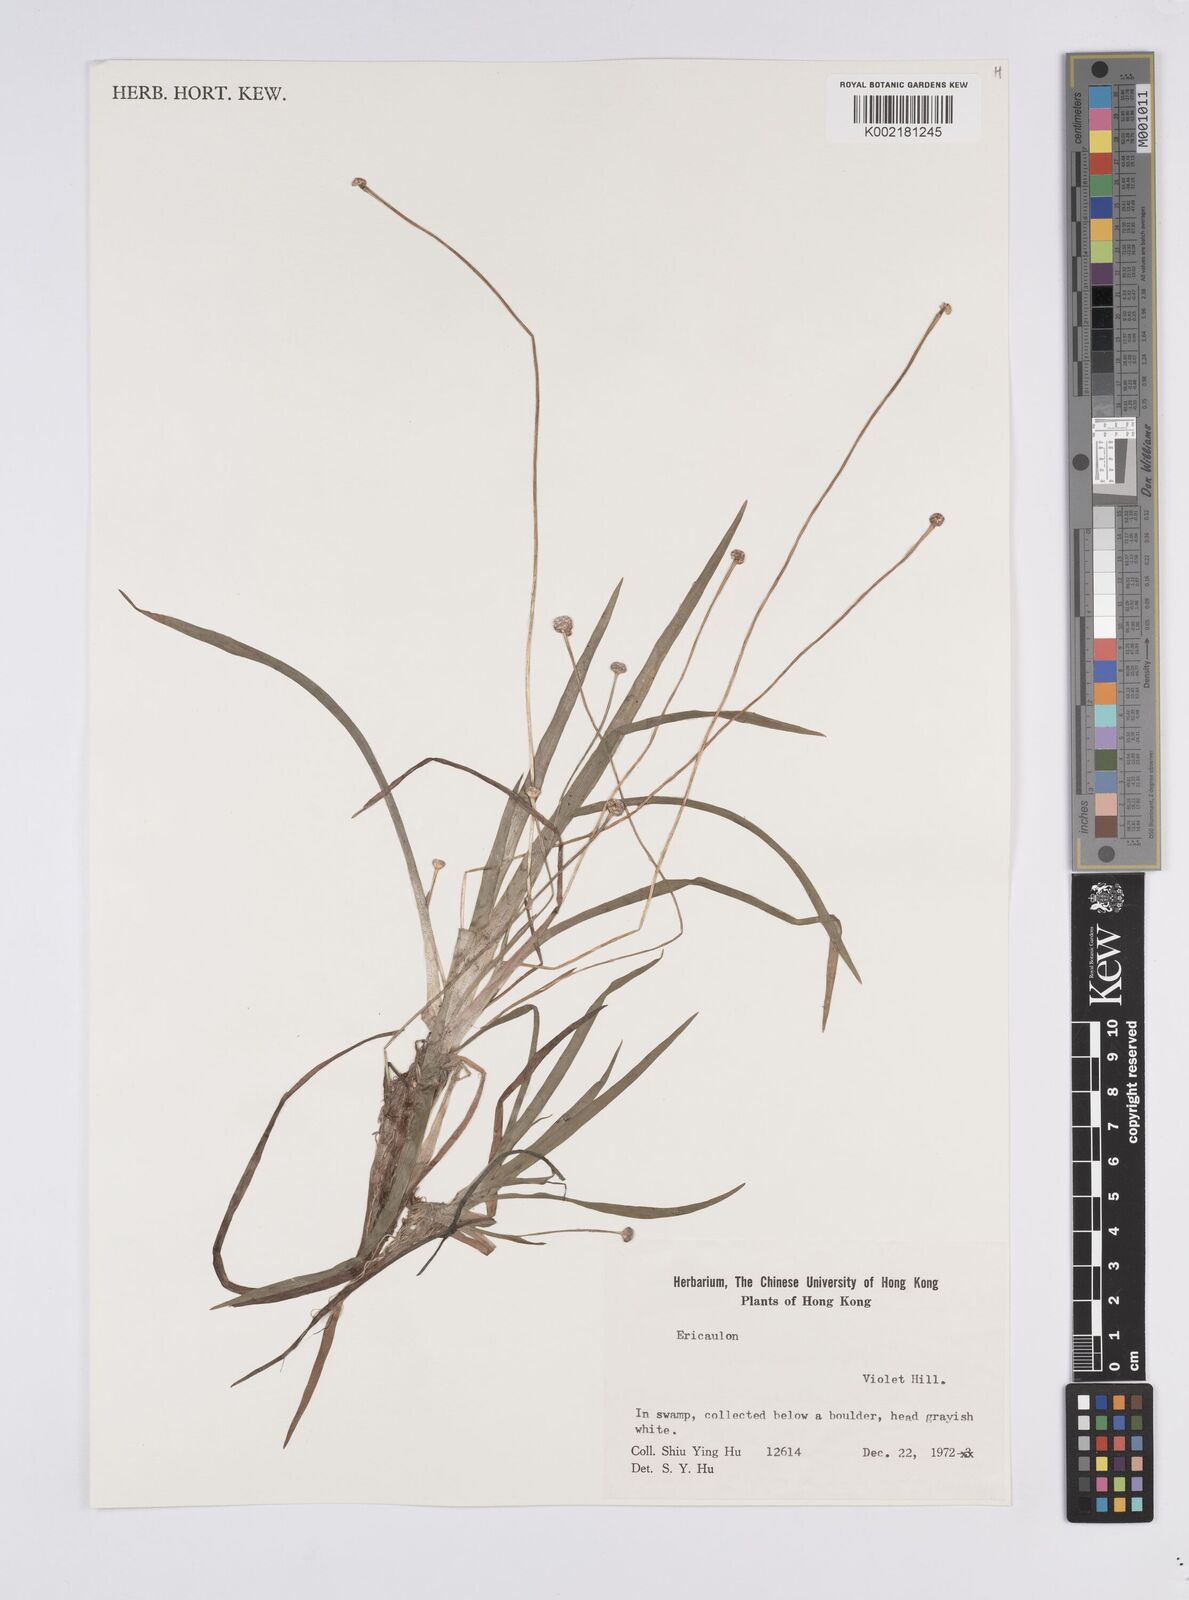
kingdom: Plantae
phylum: Tracheophyta
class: Liliopsida
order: Poales
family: Eriocaulaceae
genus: Eriocaulon
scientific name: Eriocaulon
